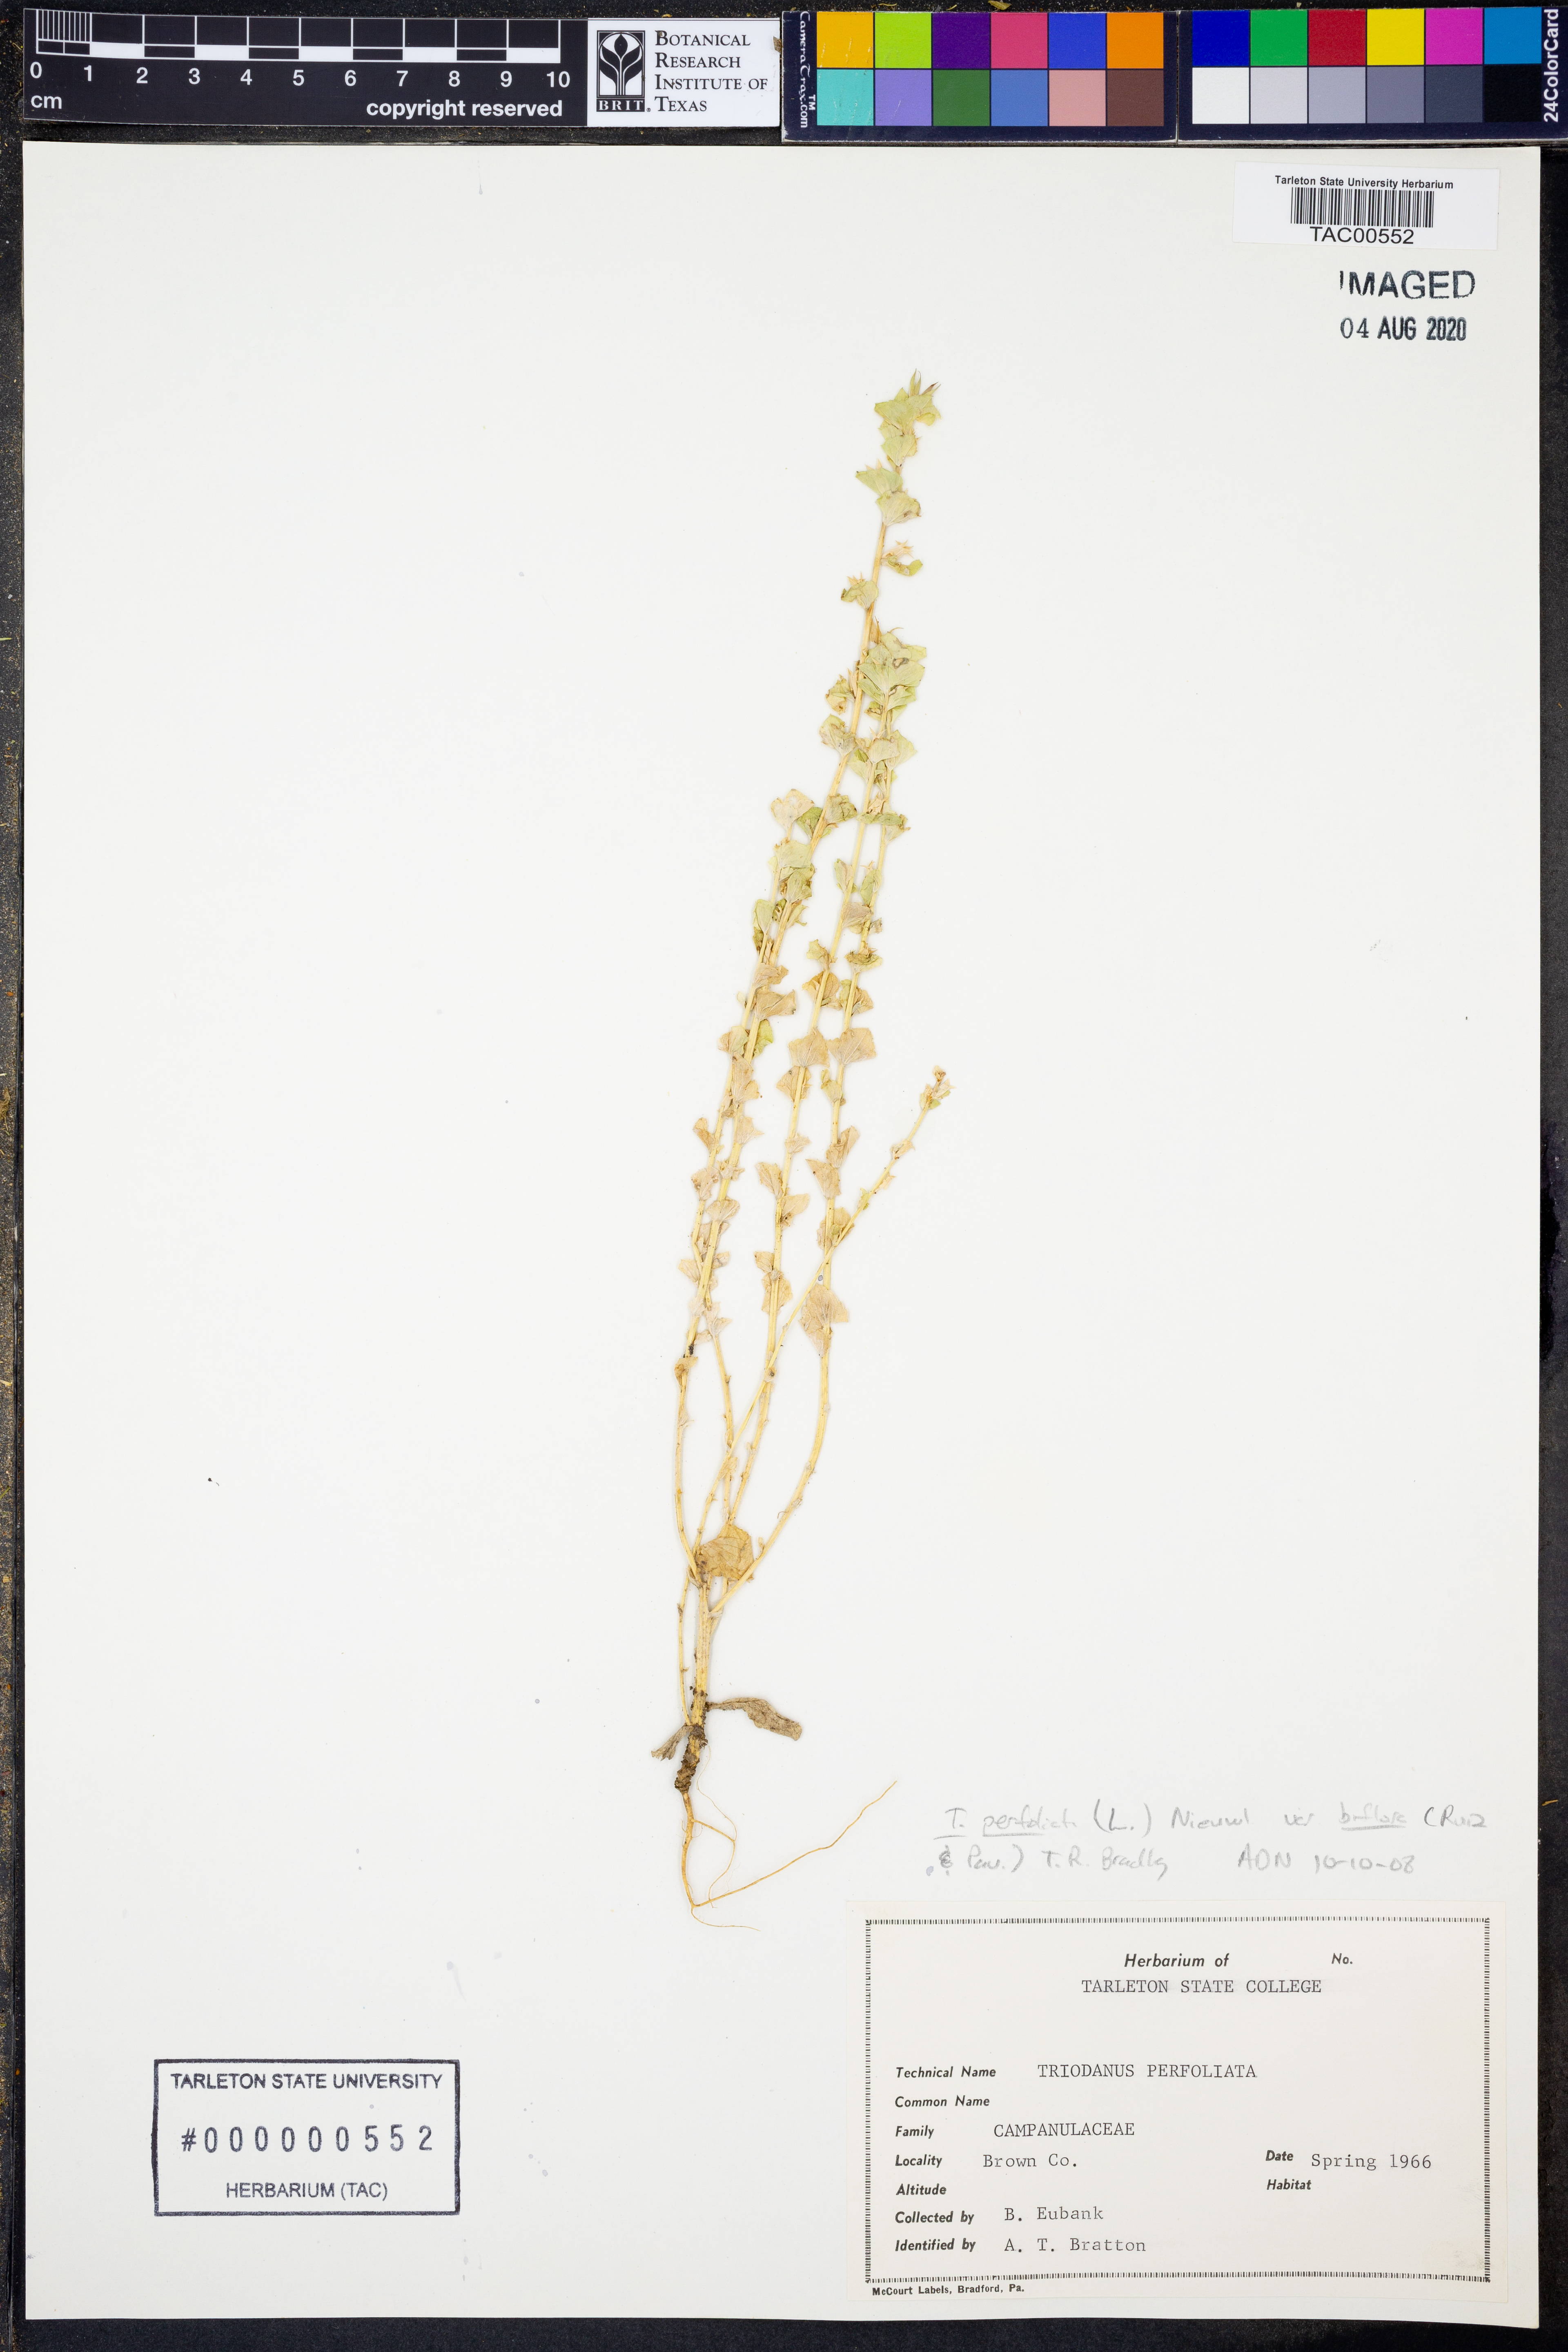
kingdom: Plantae
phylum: Tracheophyta
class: Magnoliopsida
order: Asterales
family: Campanulaceae
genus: Triodanis
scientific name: Triodanis perfoliata
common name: Clasping venus' looking-glass
